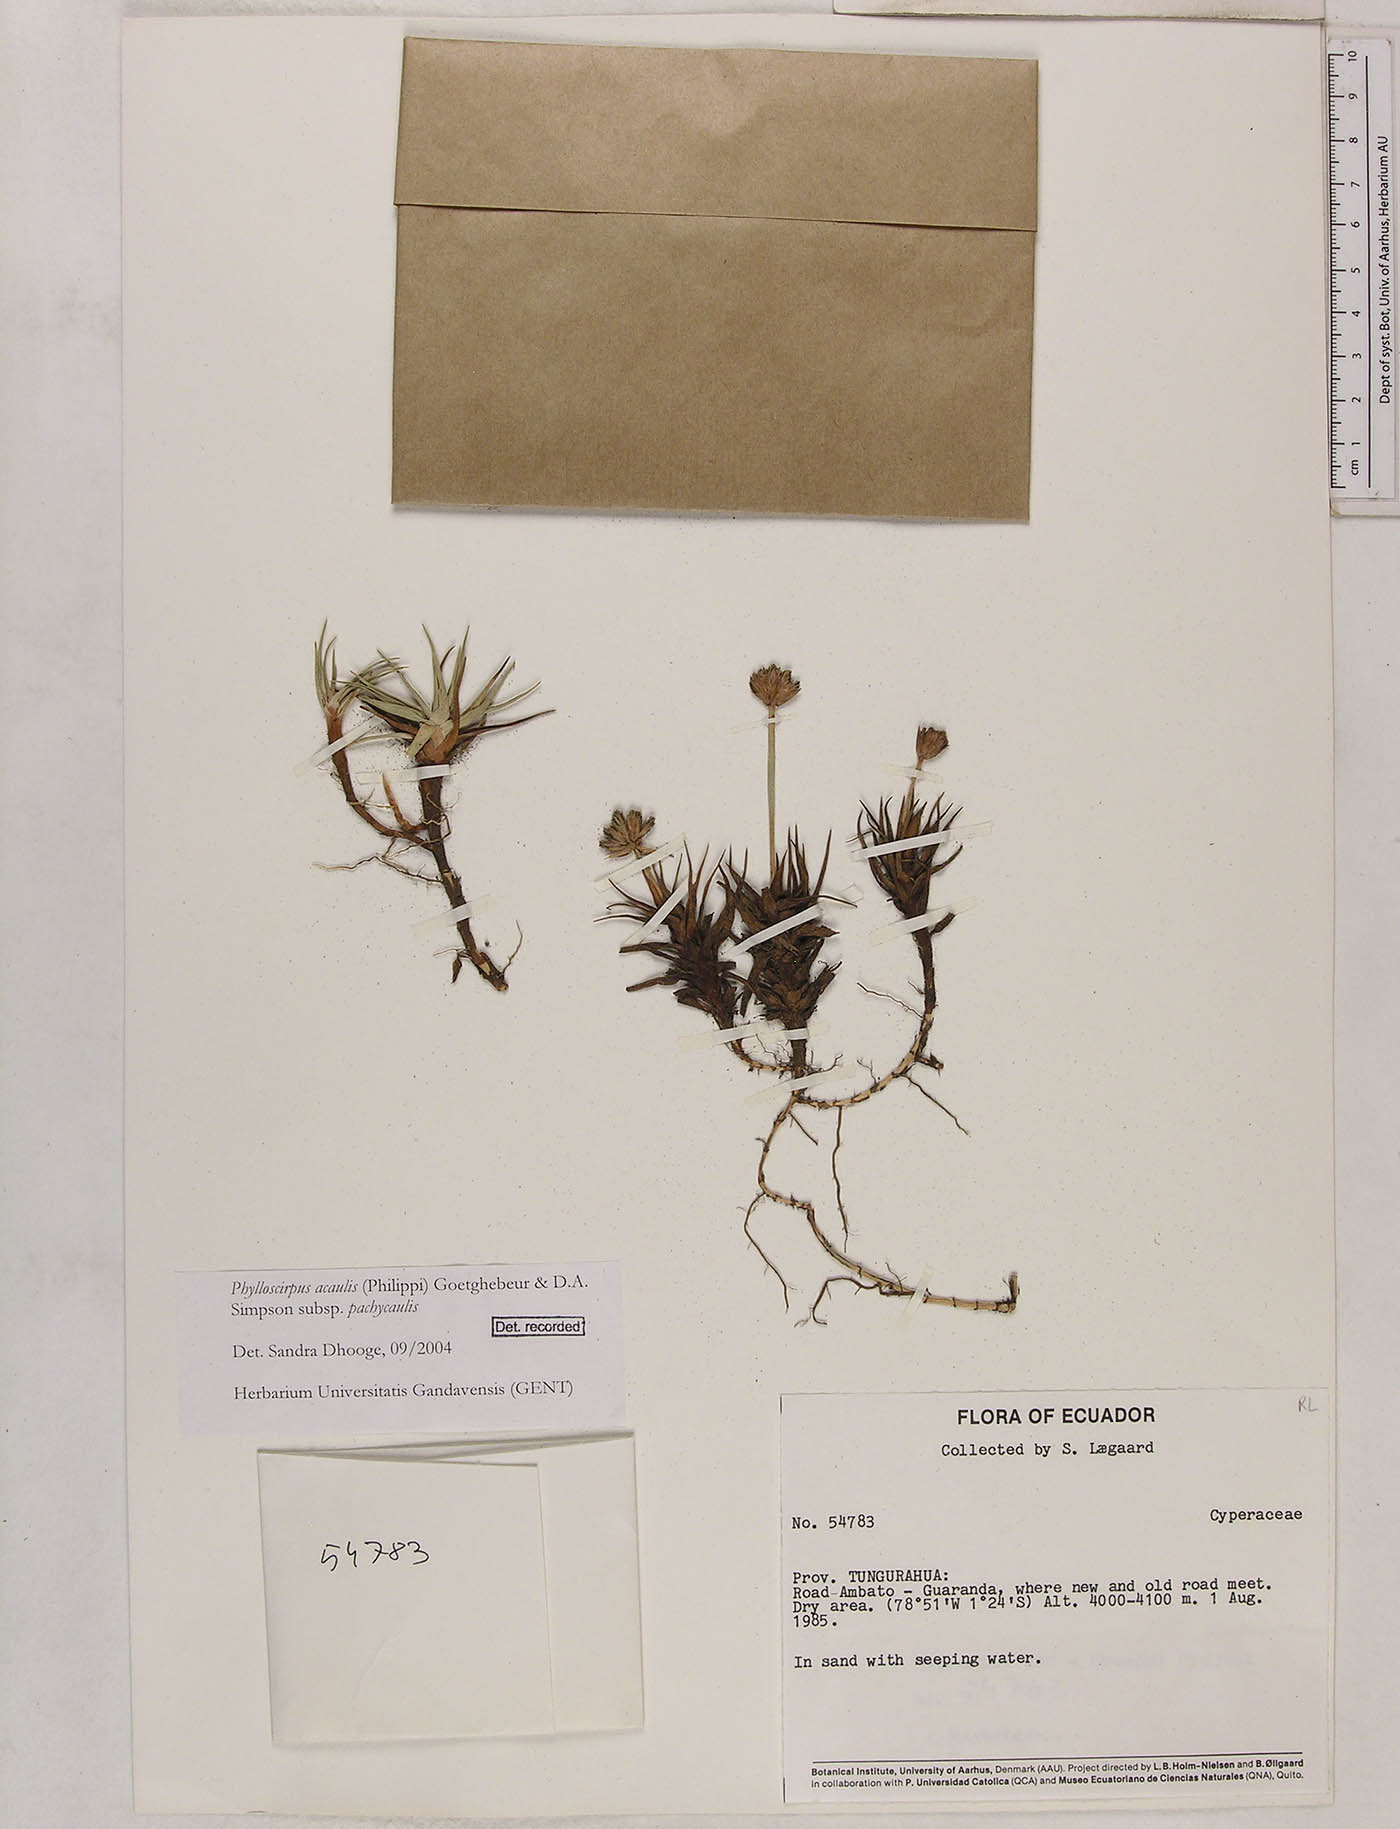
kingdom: Plantae
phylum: Tracheophyta
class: Liliopsida
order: Poales
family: Cyperaceae
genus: Phylloscirpus
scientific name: Phylloscirpus acaulis
